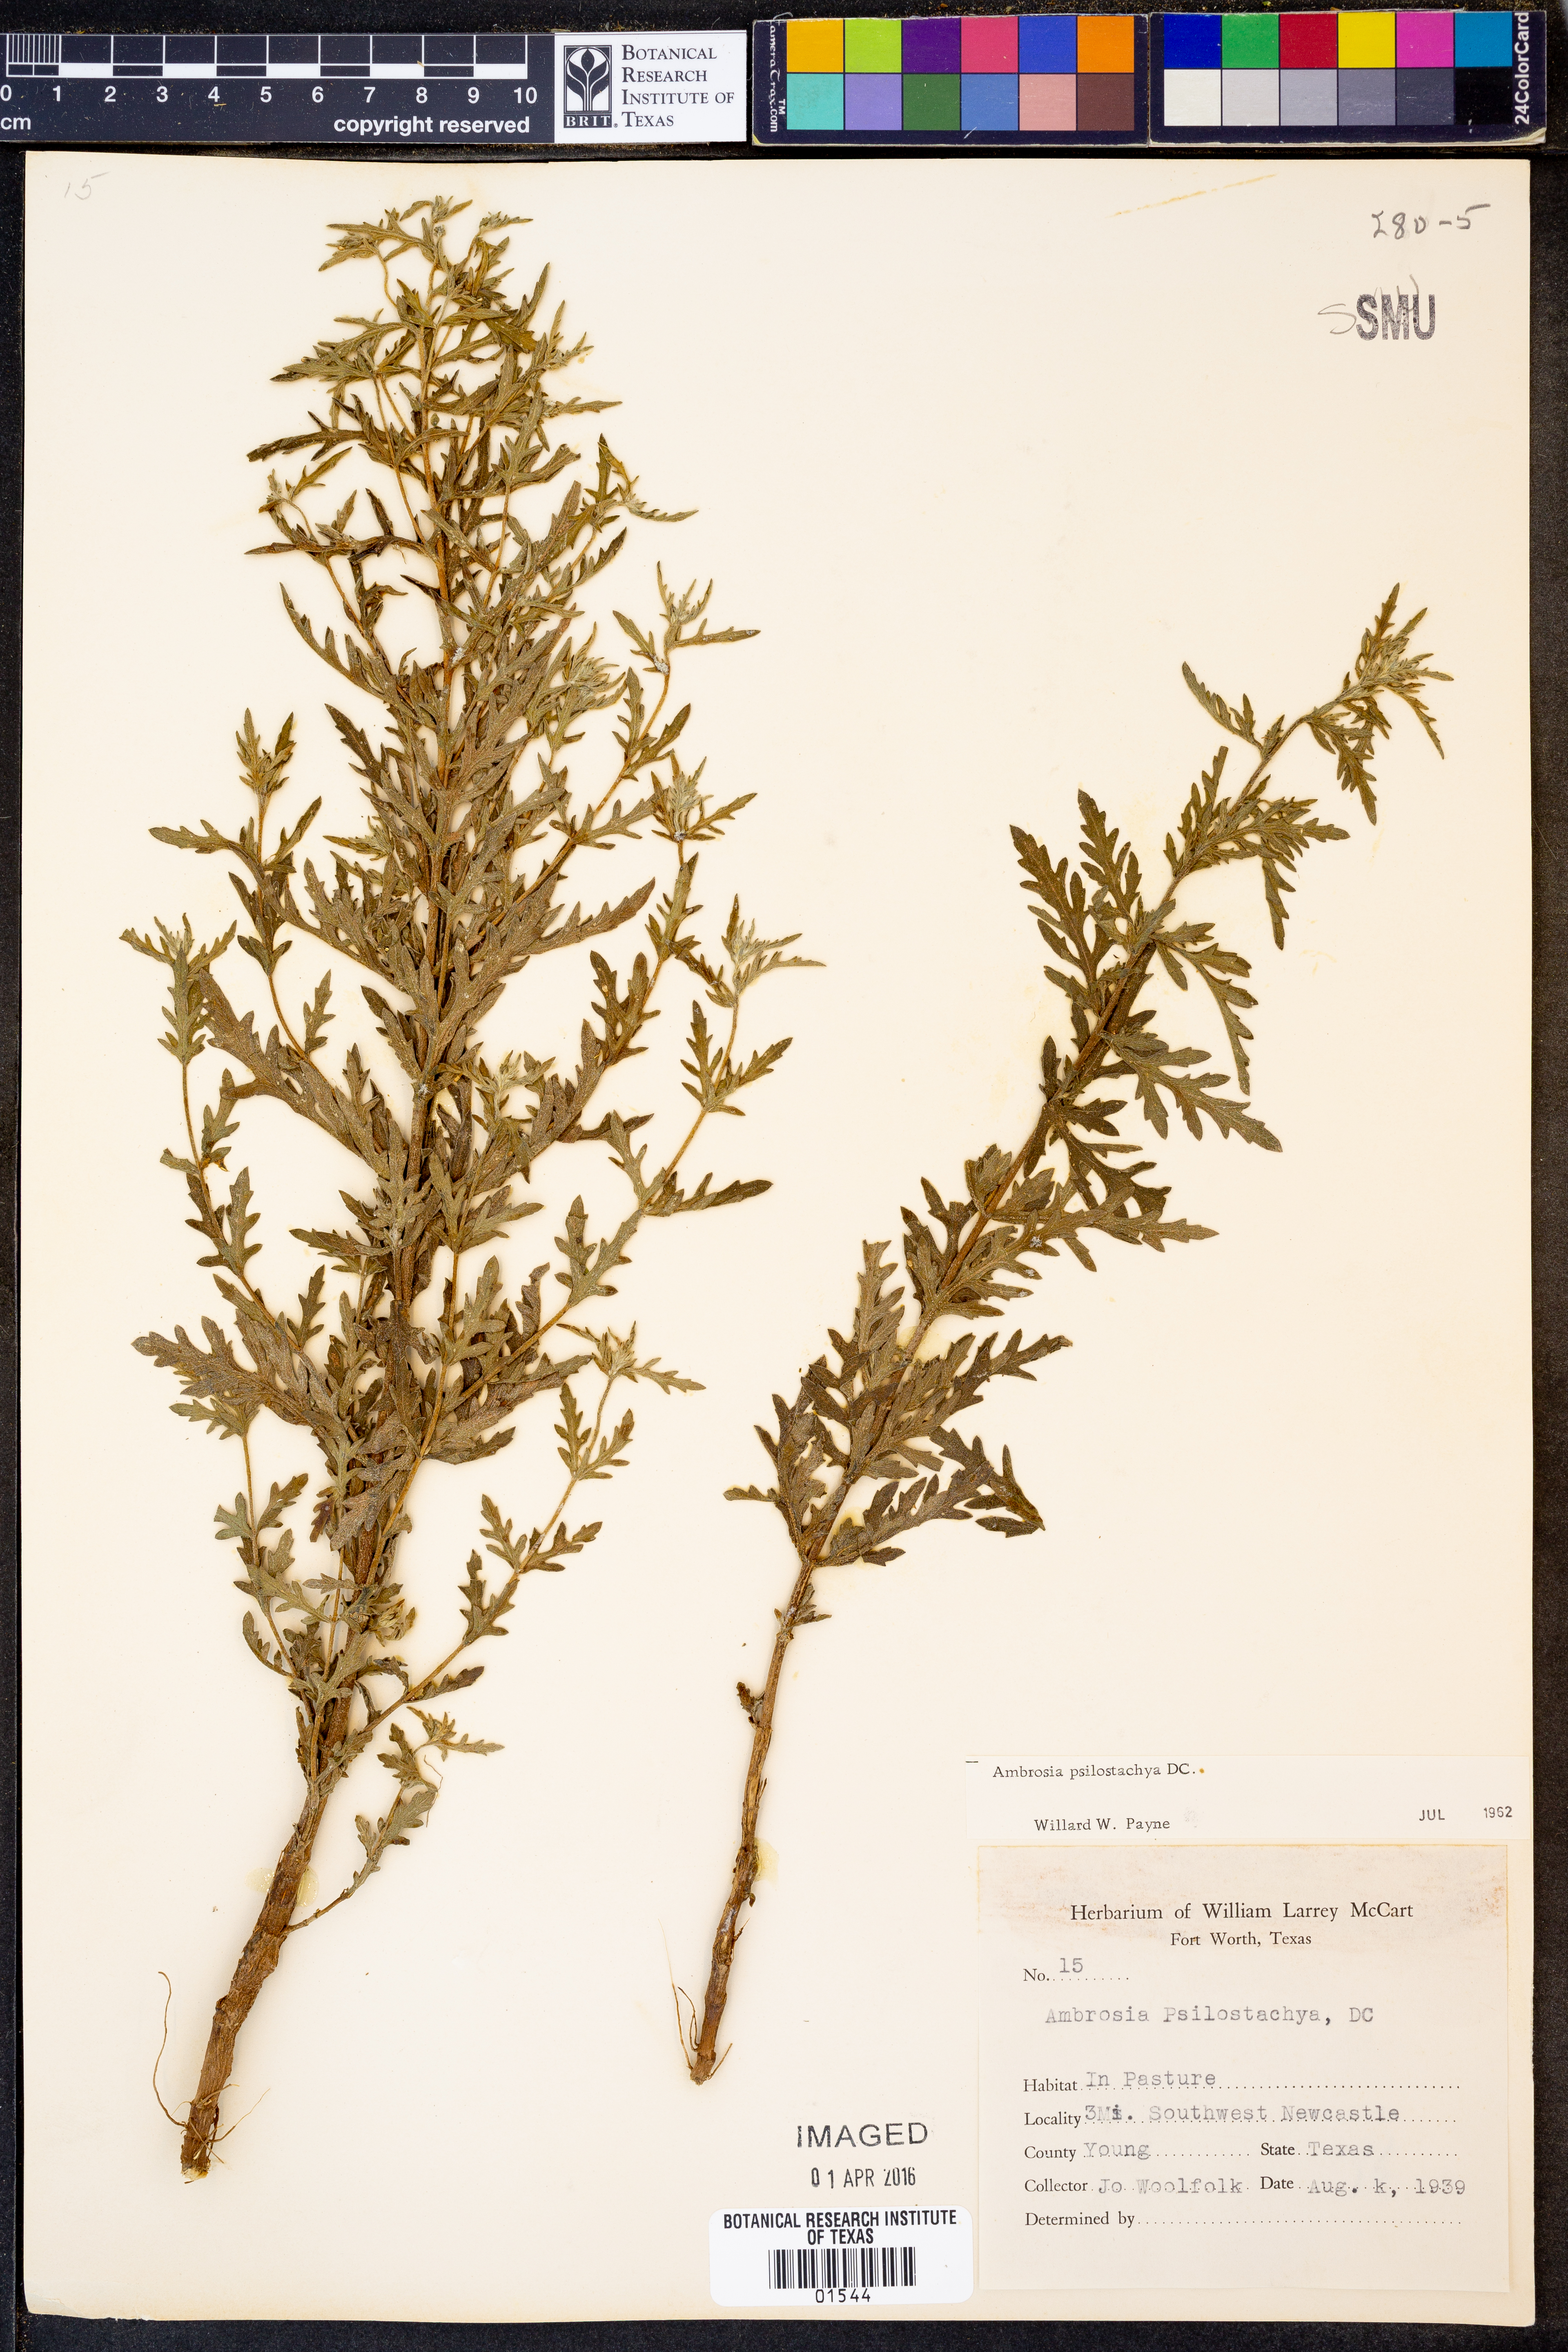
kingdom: Plantae
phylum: Tracheophyta
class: Magnoliopsida
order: Asterales
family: Asteraceae
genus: Ambrosia
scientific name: Ambrosia psilostachya
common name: Perennial ragweed
